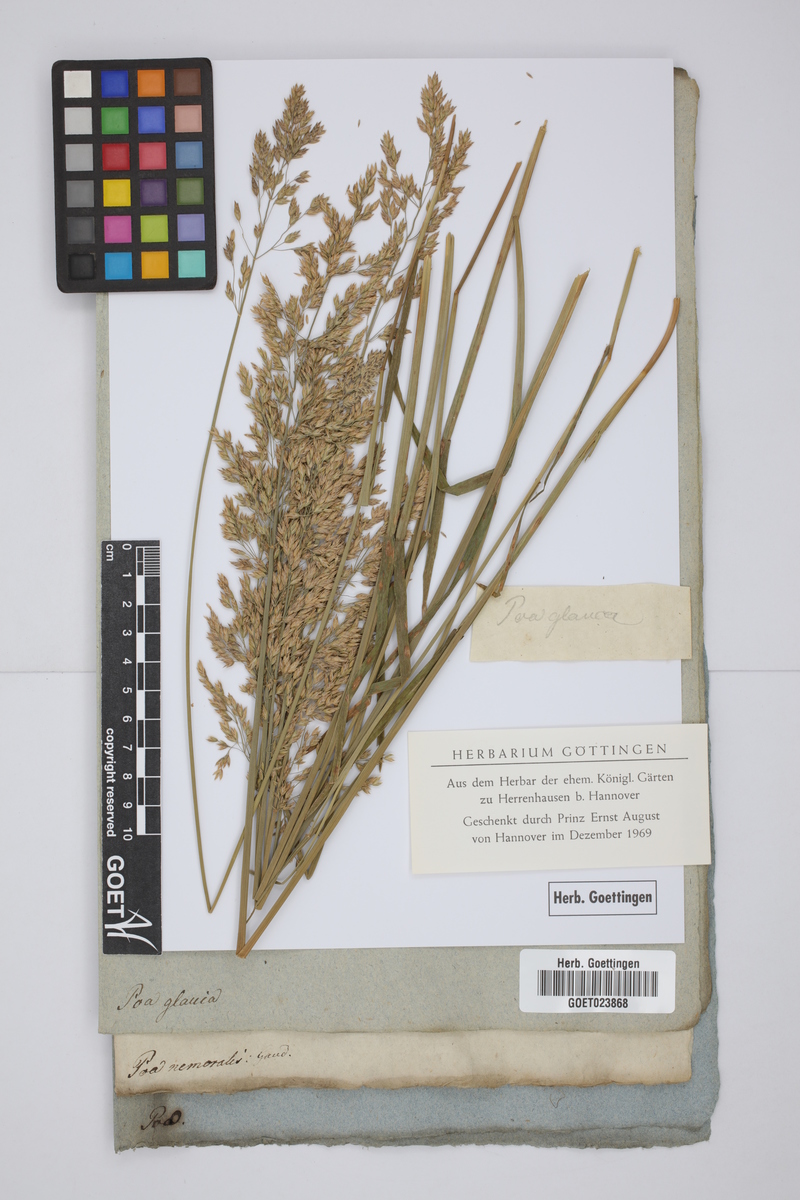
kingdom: Plantae
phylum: Tracheophyta
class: Liliopsida
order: Poales
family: Poaceae
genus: Poa
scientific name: Poa glauca
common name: Glaucous bluegrass
